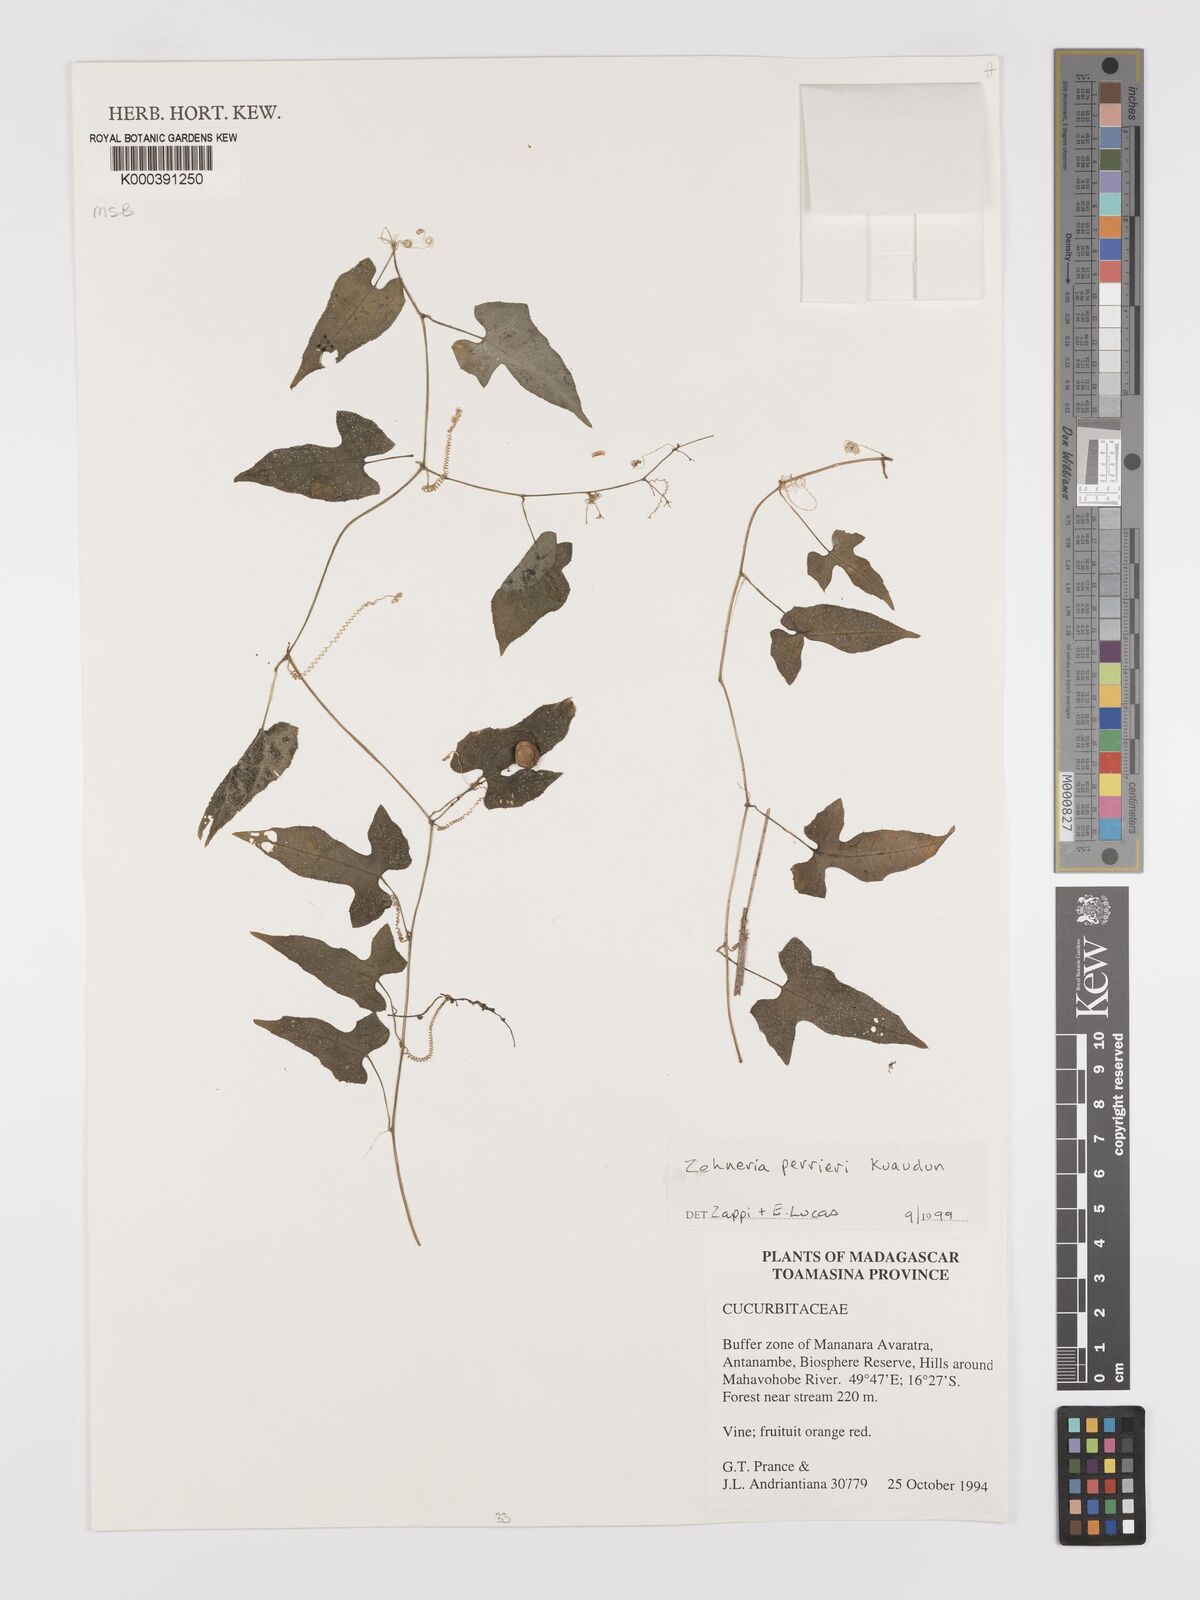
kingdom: Plantae
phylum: Tracheophyta
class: Magnoliopsida
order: Cucurbitales
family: Cucurbitaceae
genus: Zehneria
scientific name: Zehneria perrieri
